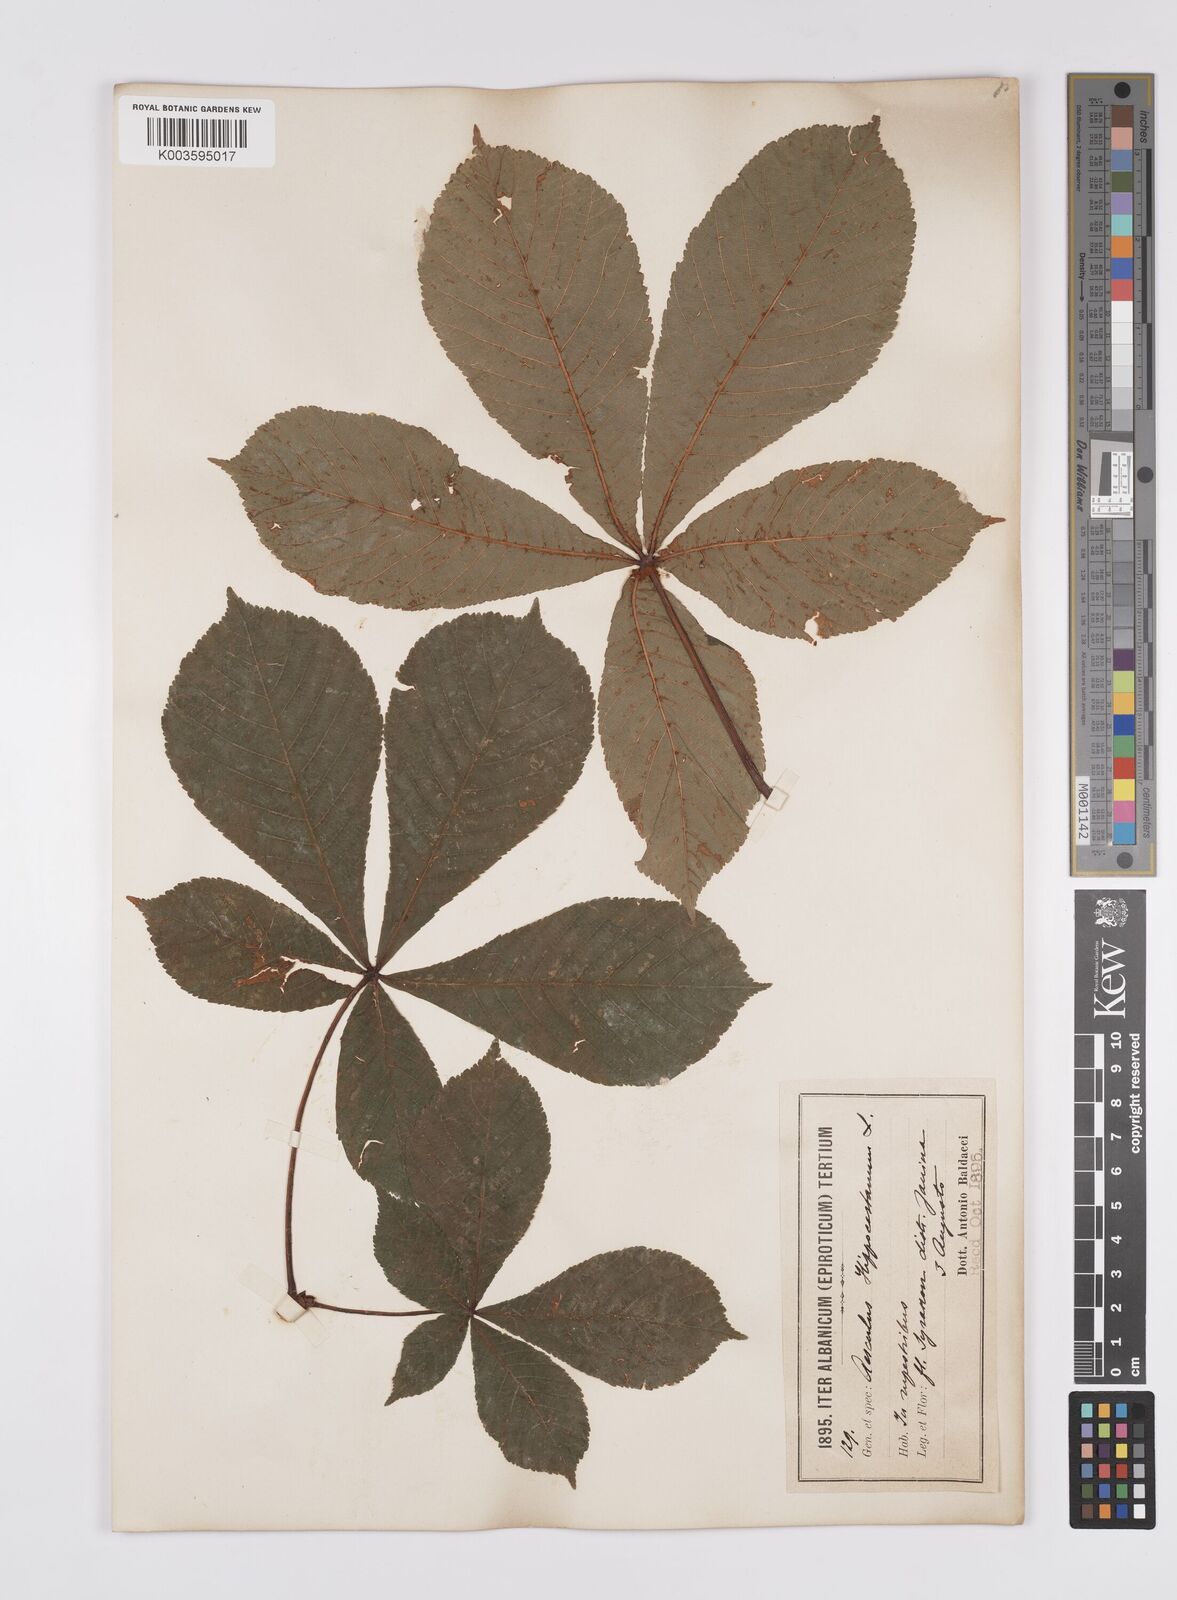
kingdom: Plantae
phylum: Tracheophyta
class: Magnoliopsida
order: Sapindales
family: Sapindaceae
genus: Aesculus
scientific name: Aesculus hippocastanum
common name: Horse-chestnut
